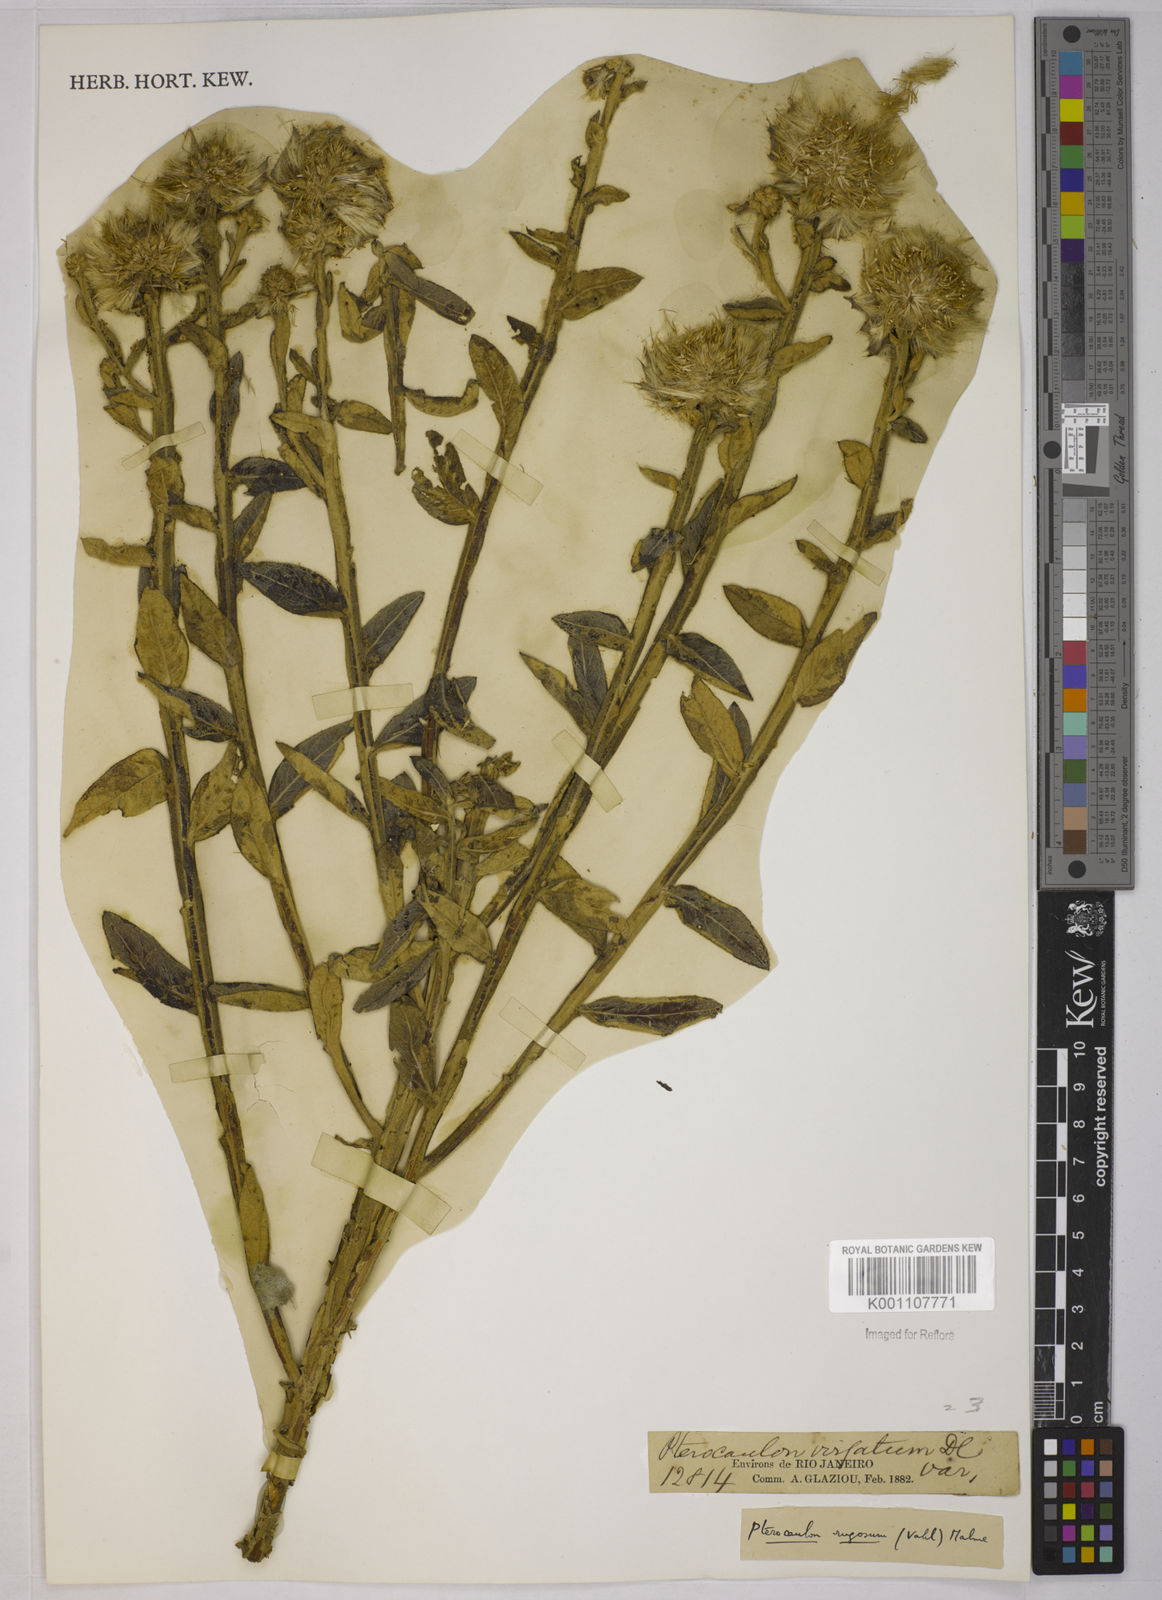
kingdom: Plantae
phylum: Tracheophyta
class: Magnoliopsida
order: Asterales
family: Asteraceae
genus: Pterocaulon
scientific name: Pterocaulon angustifolium
